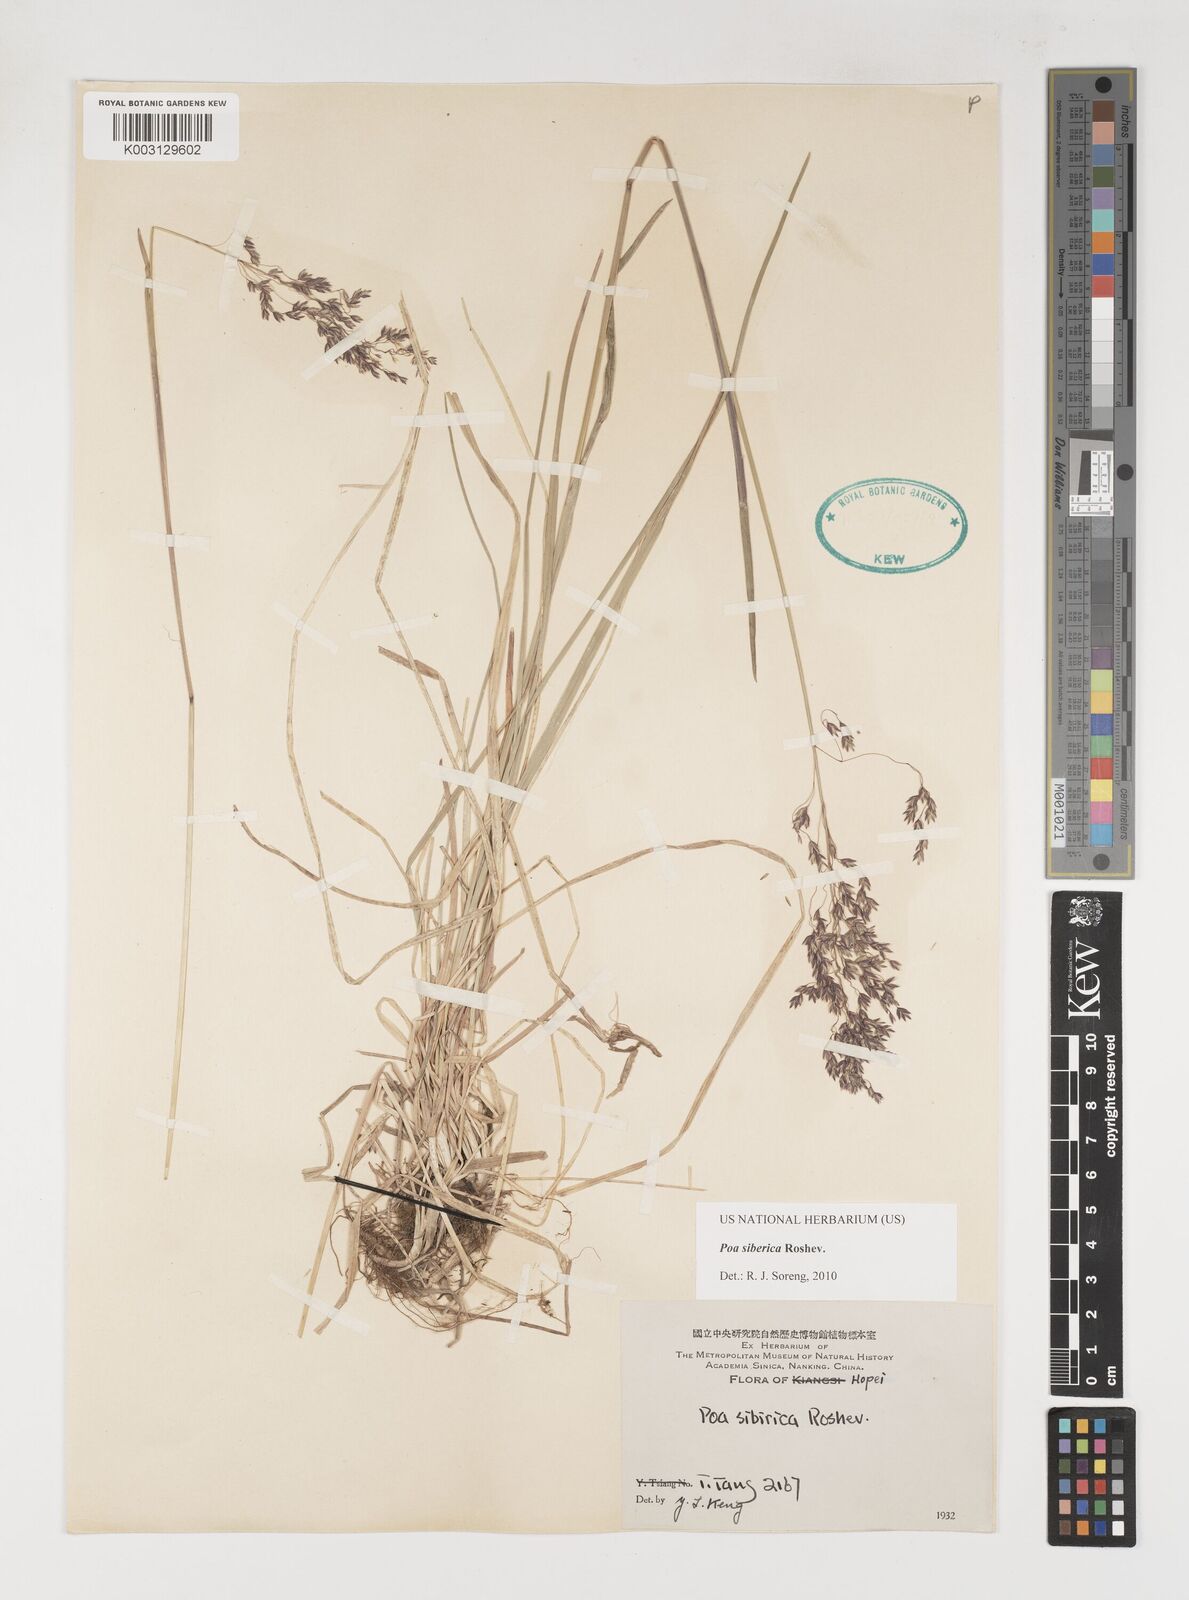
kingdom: Plantae
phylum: Tracheophyta
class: Liliopsida
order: Poales
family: Poaceae
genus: Poa
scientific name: Poa sibirica
